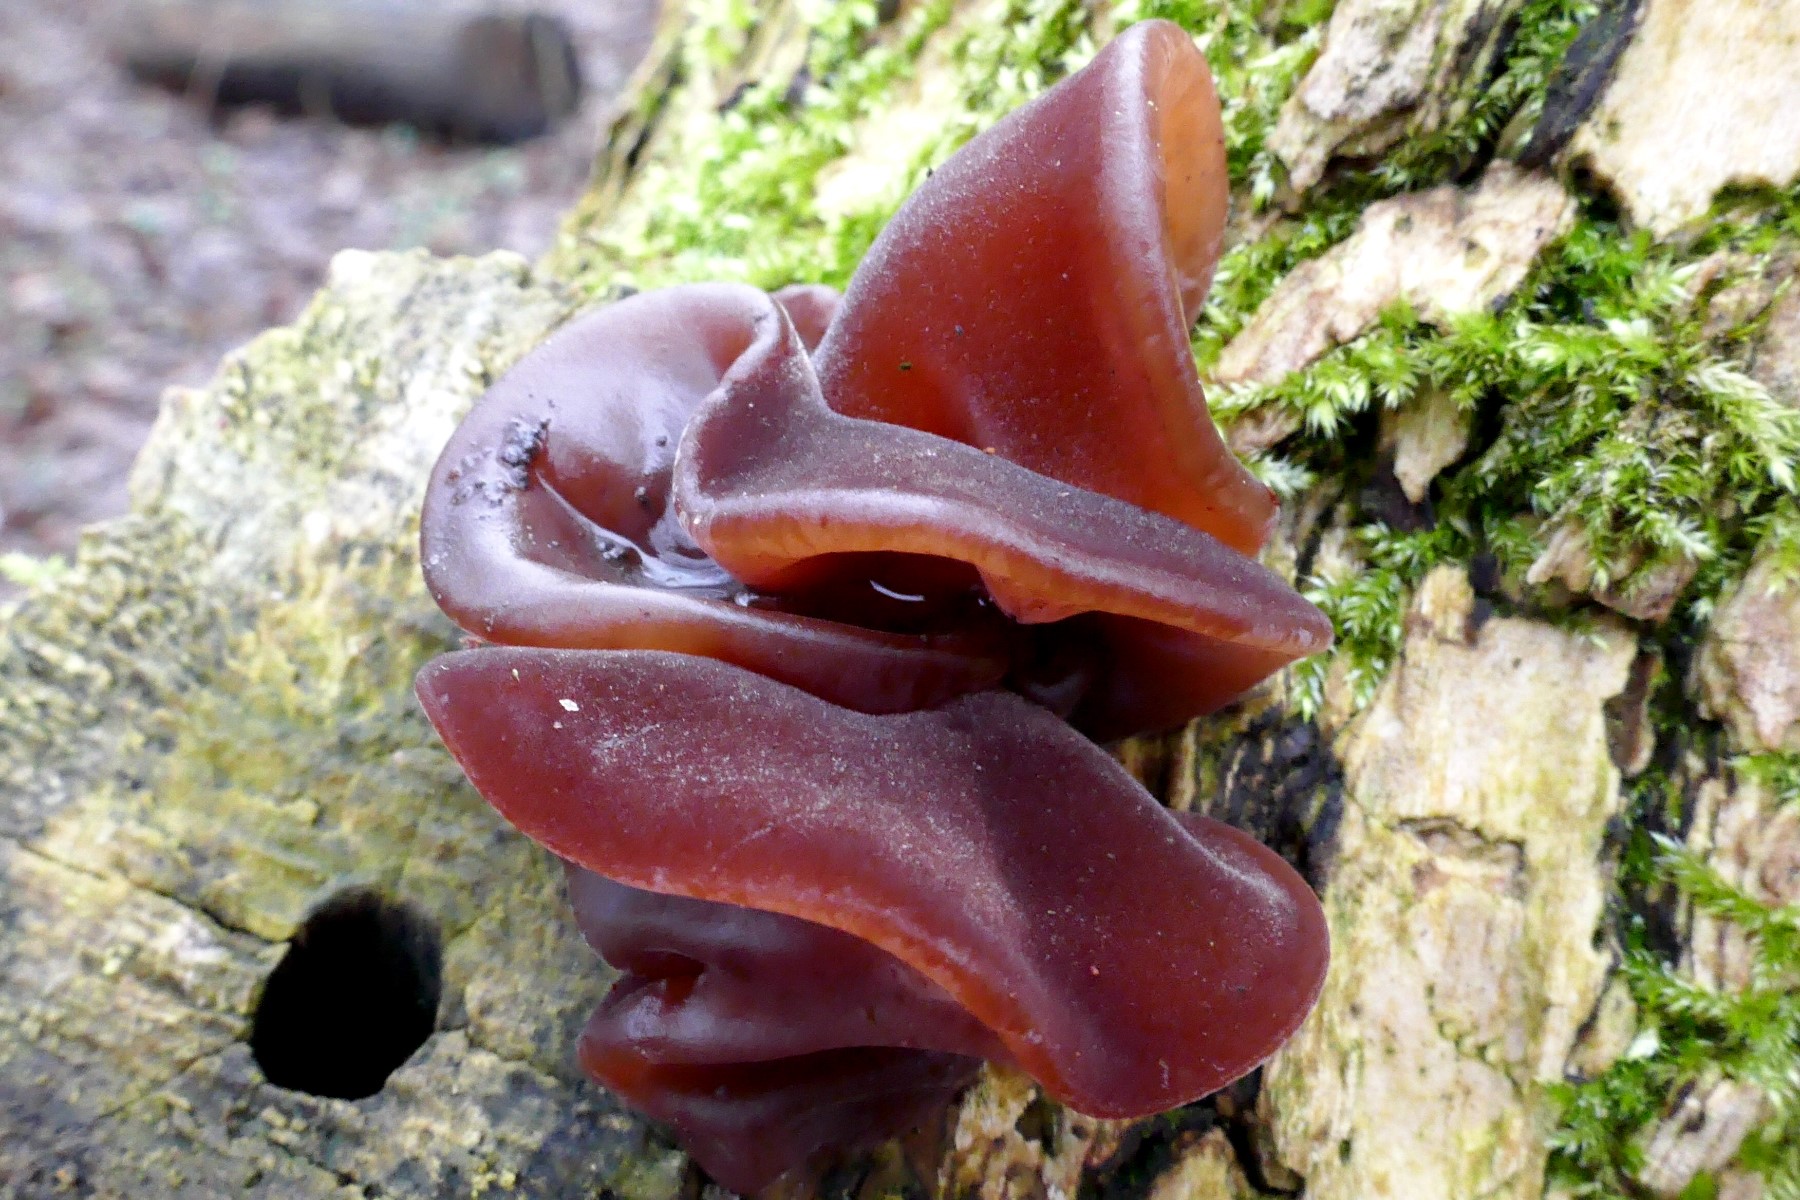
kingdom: Fungi
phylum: Basidiomycota
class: Agaricomycetes
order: Auriculariales
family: Auriculariaceae
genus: Auricularia
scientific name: Auricularia auricula-judae
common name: almindelig judasøre
